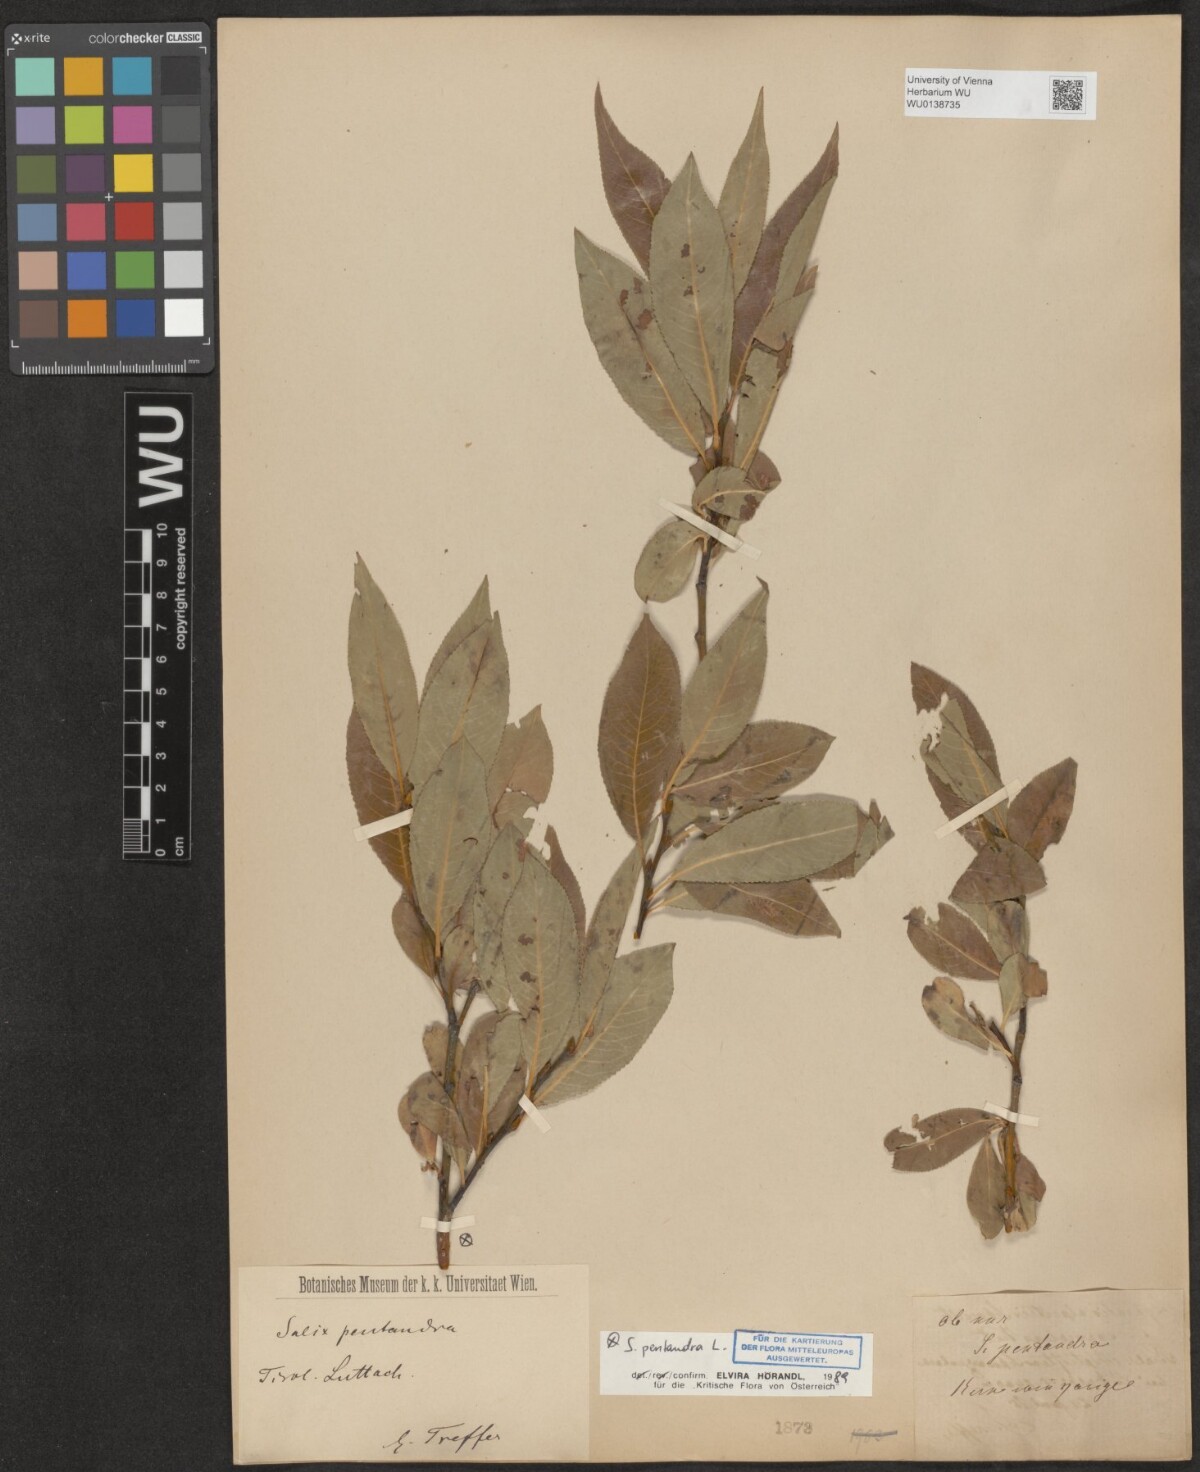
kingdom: Plantae
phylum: Tracheophyta
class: Magnoliopsida
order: Malpighiales
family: Salicaceae
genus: Salix
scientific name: Salix pentandra
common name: Bay willow
